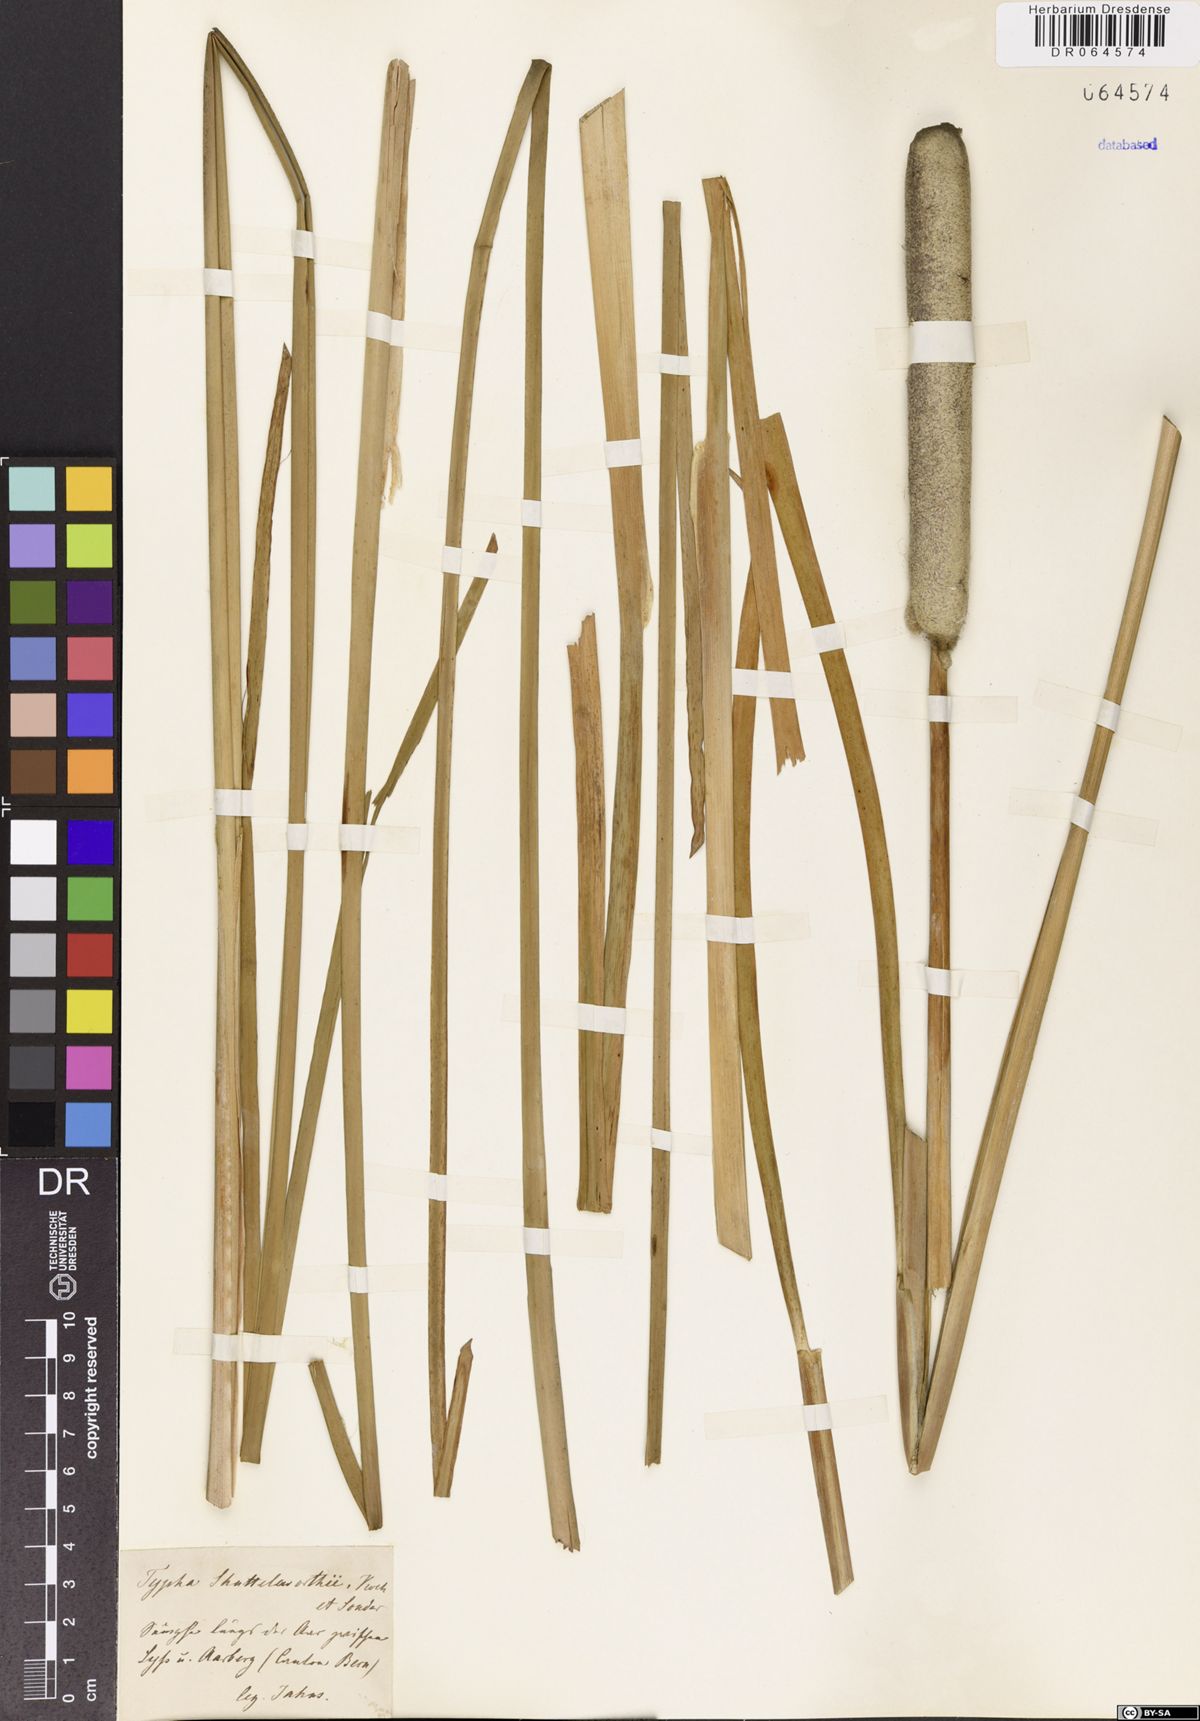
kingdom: Plantae
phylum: Tracheophyta
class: Liliopsida
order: Poales
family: Typhaceae
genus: Typha
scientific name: Typha shuttleworthii
